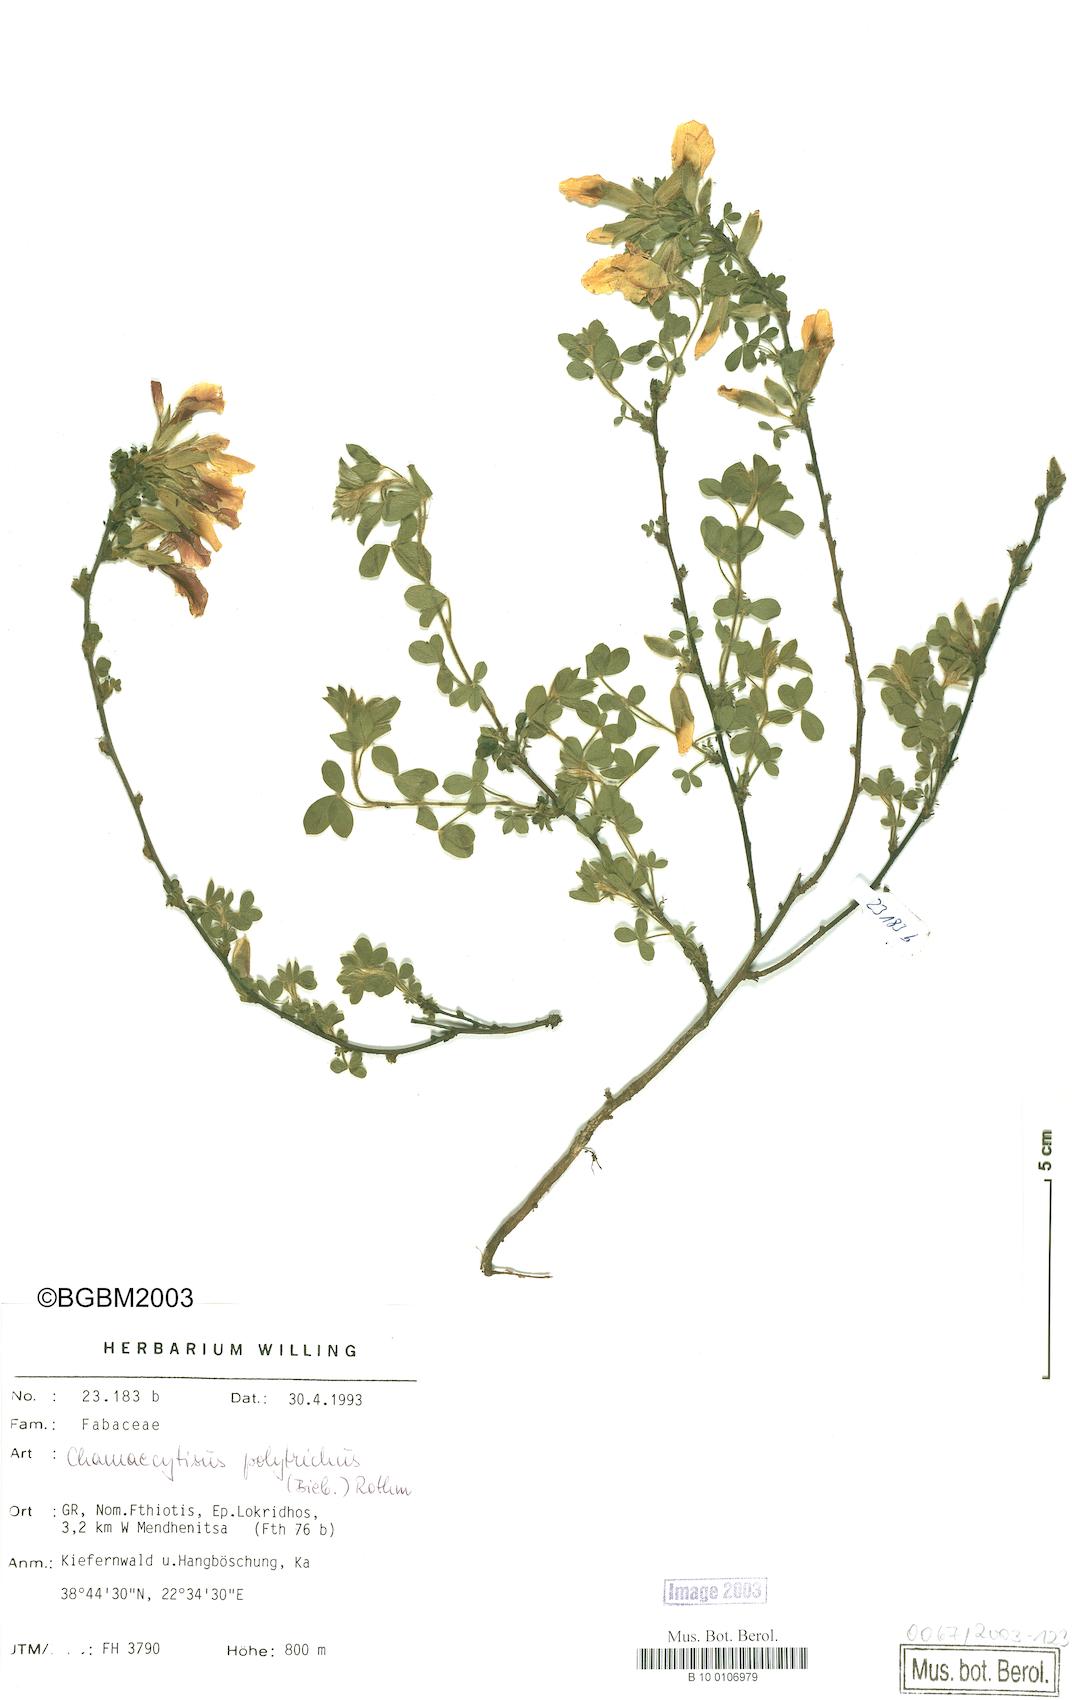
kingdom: Plantae
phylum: Tracheophyta
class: Magnoliopsida
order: Fabales
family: Fabaceae
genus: Chamaecytisus
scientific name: Chamaecytisus hirsutus
